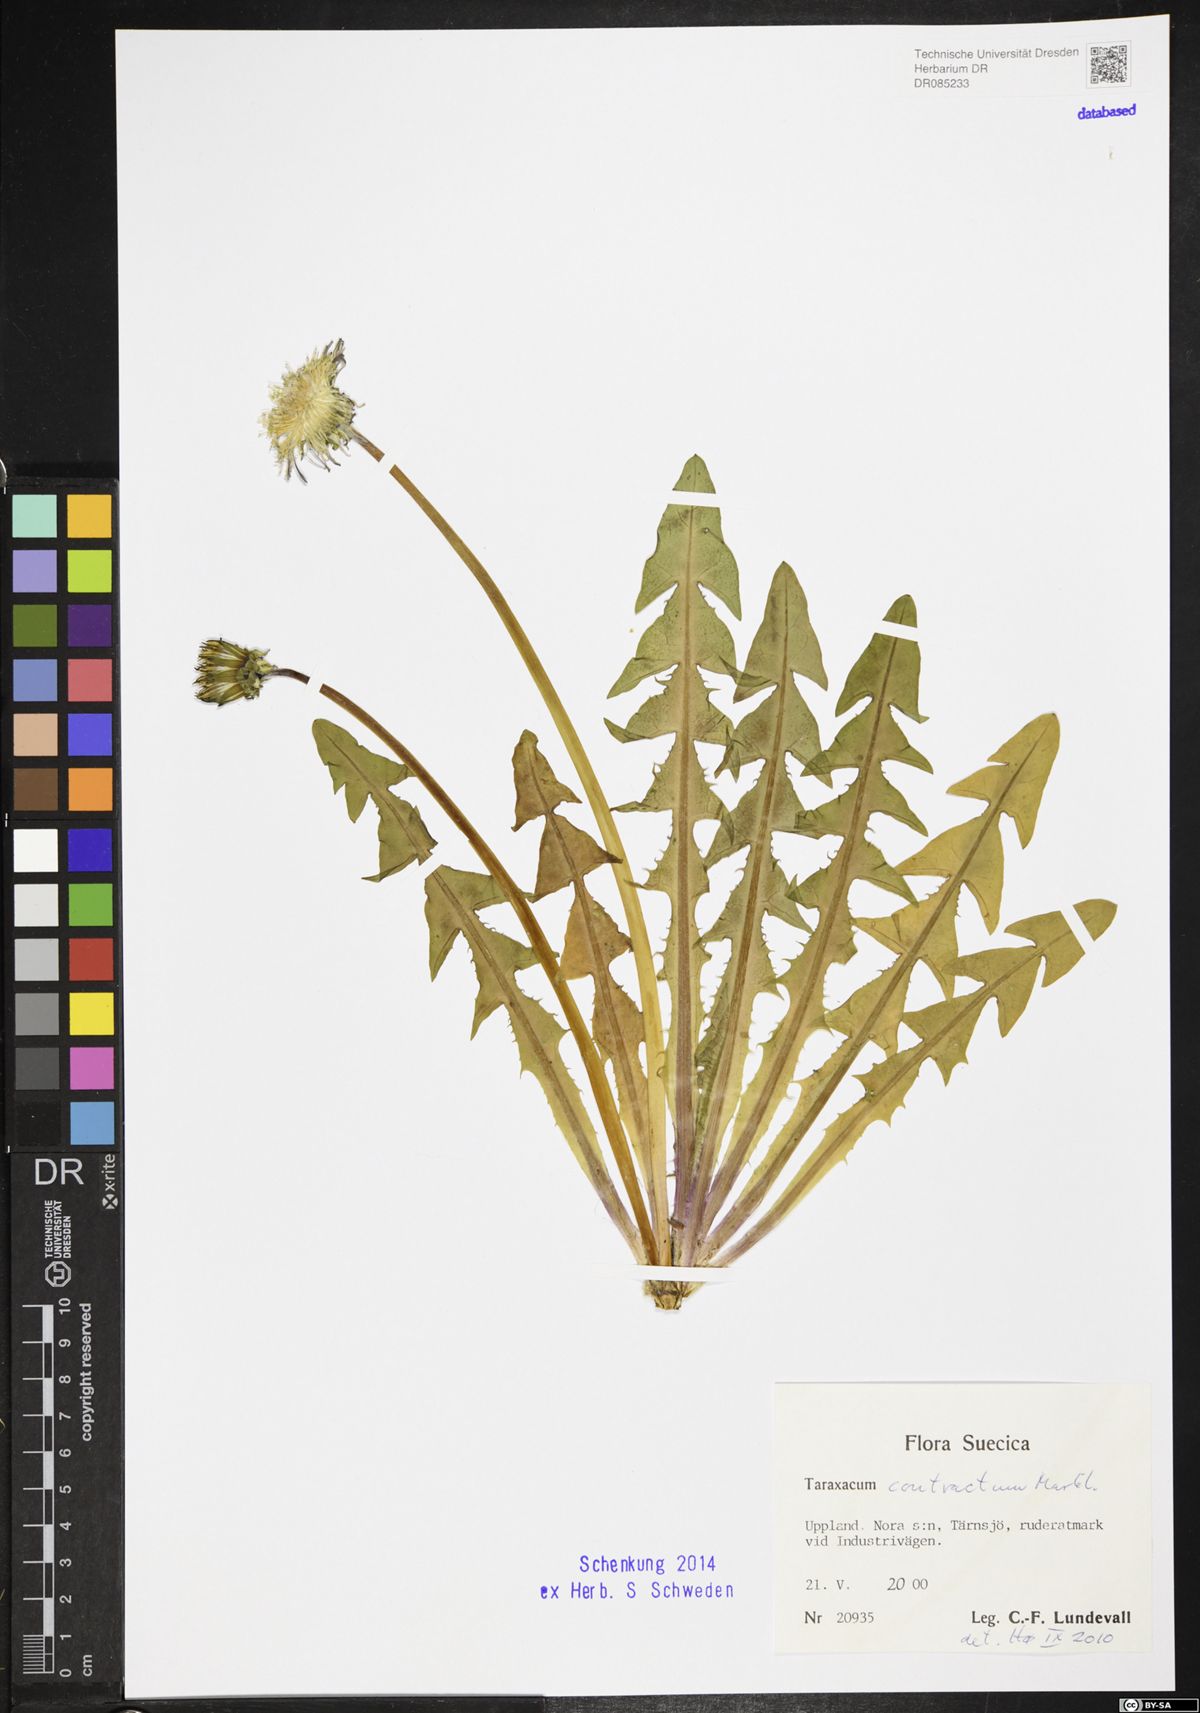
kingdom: Plantae
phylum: Tracheophyta
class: Magnoliopsida
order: Asterales
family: Asteraceae
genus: Taraxacum
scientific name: Taraxacum contractum
